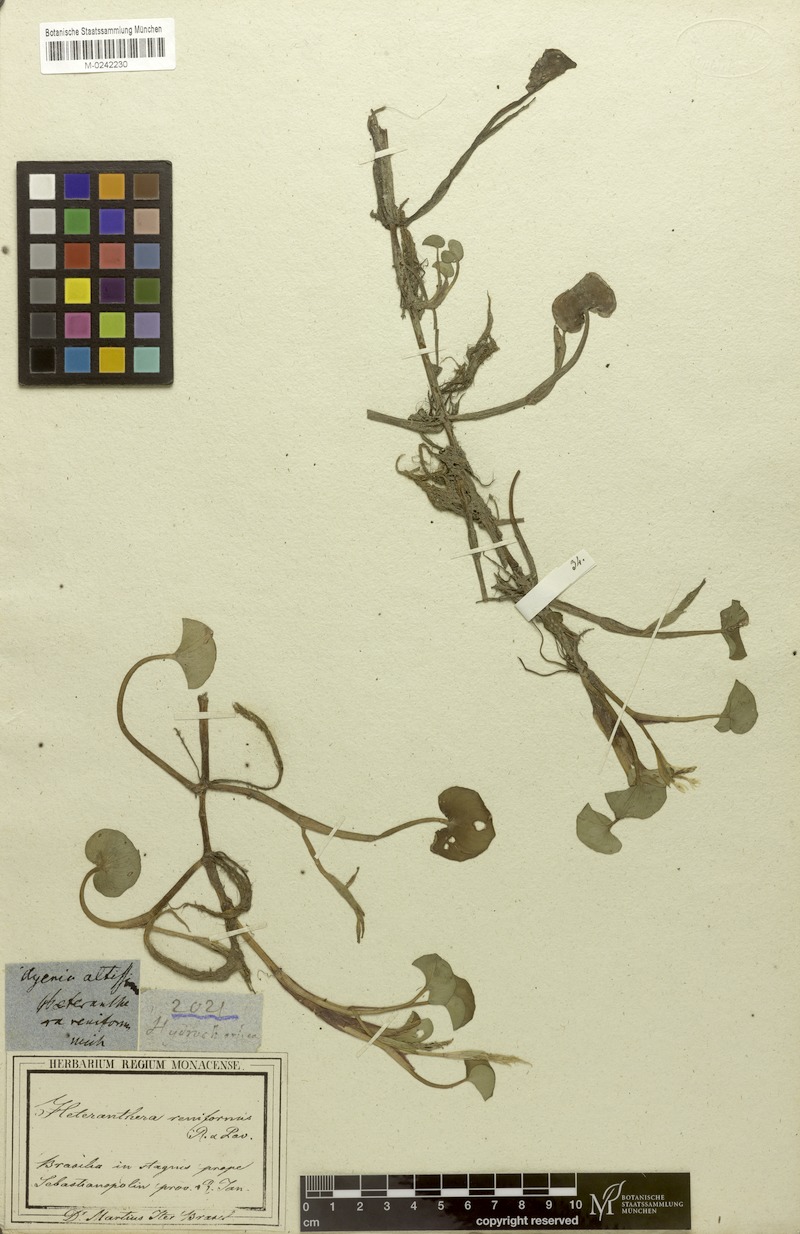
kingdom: Plantae
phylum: Tracheophyta
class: Liliopsida
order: Commelinales
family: Pontederiaceae
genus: Heteranthera
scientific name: Heteranthera reniformis
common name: Kidneyleaf mudplantain
